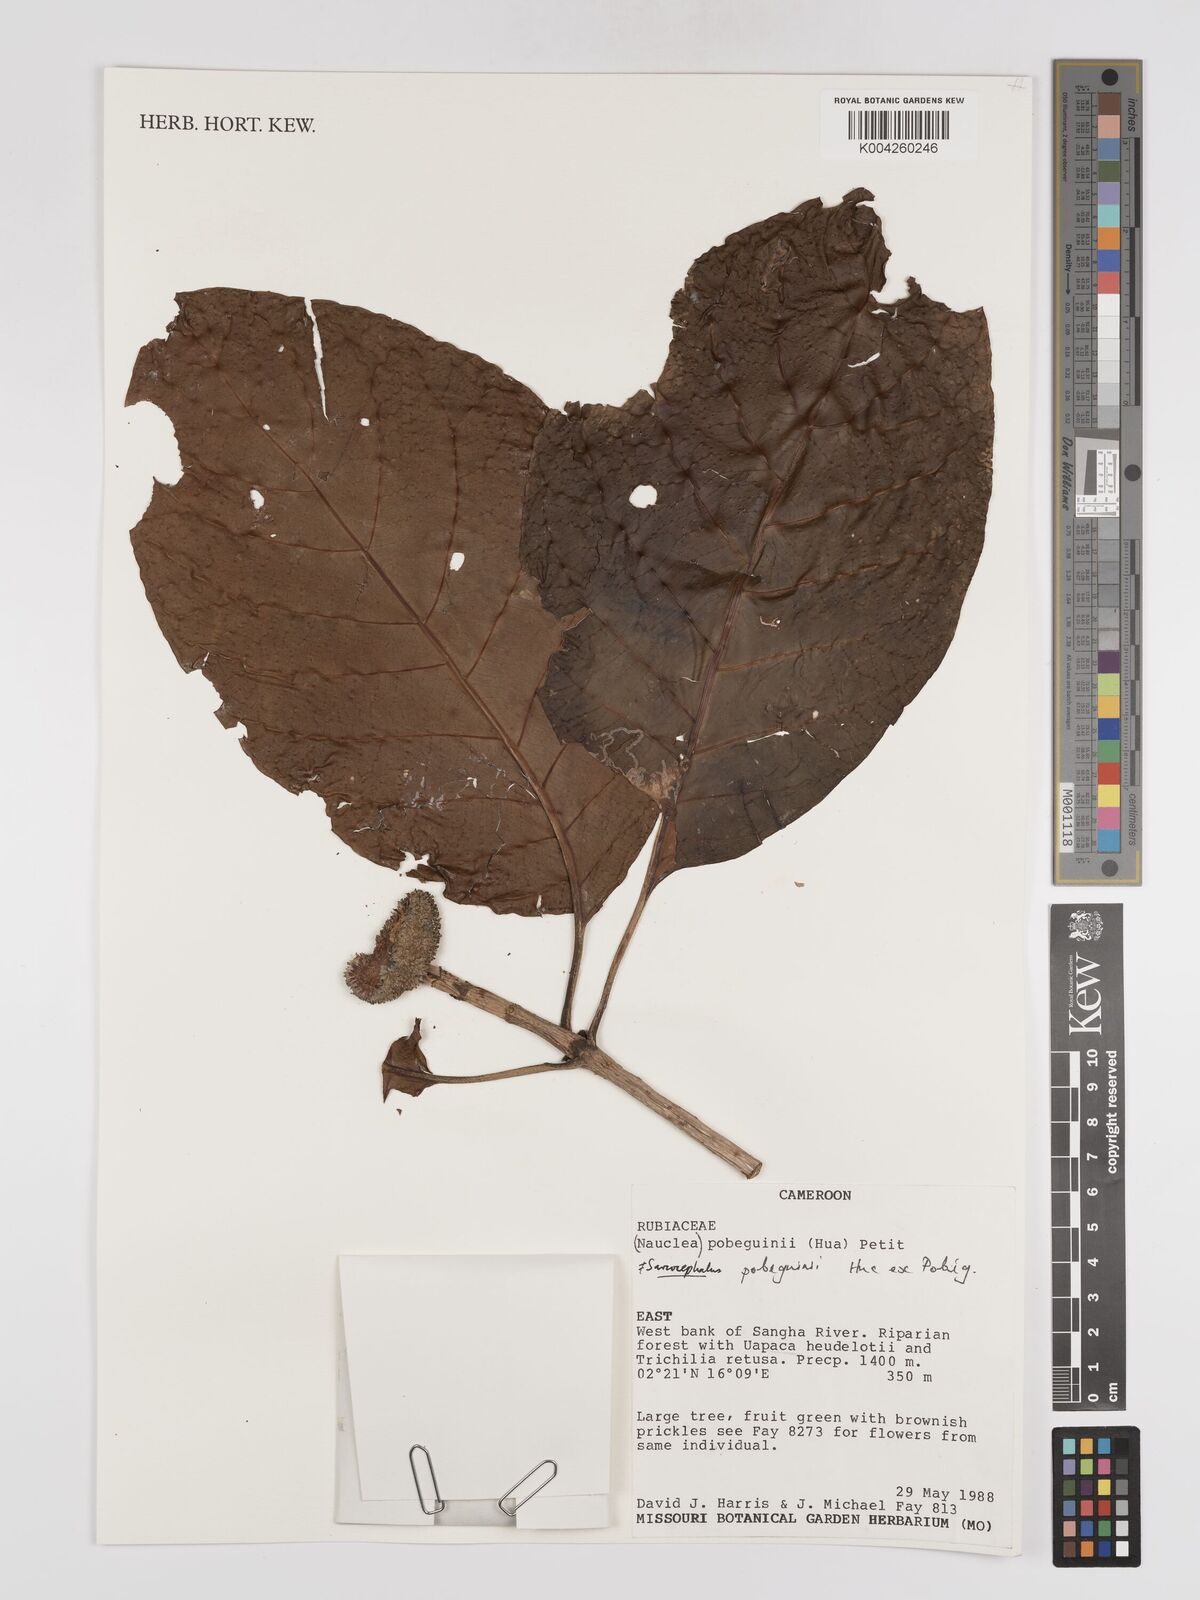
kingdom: Plantae
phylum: Tracheophyta
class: Magnoliopsida
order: Gentianales
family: Rubiaceae
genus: Nauclea
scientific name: Nauclea pobeguinii
